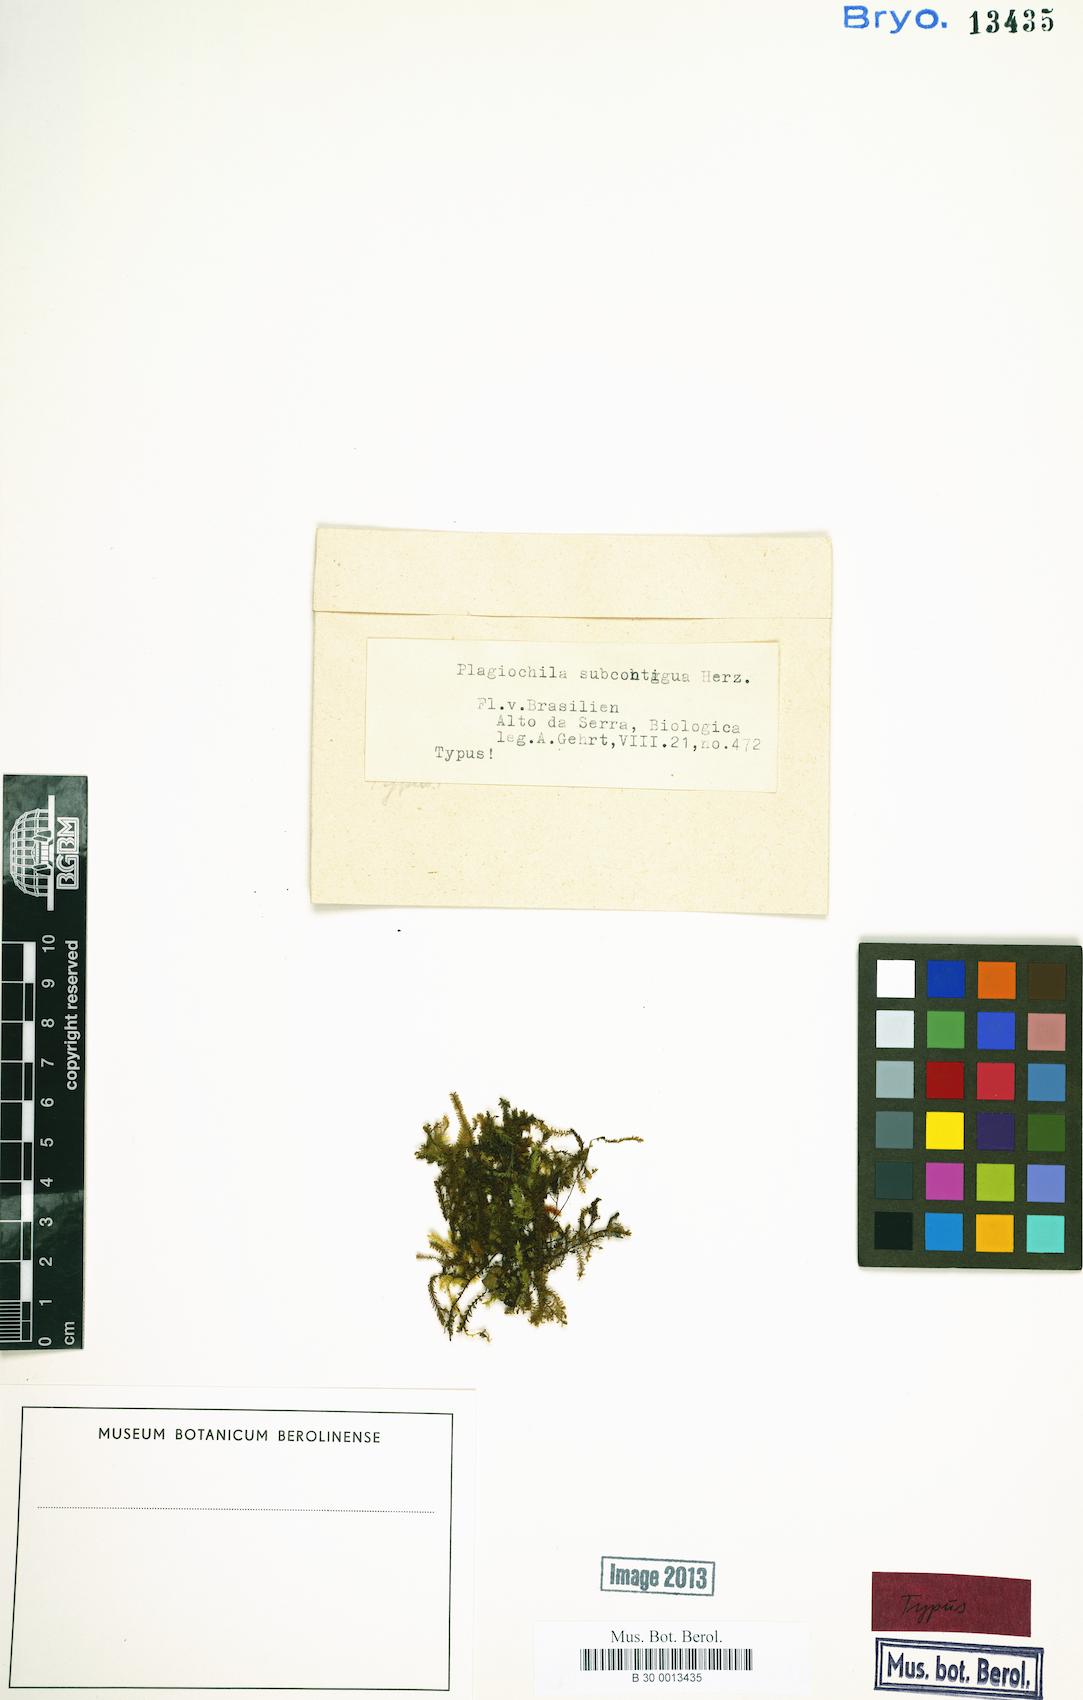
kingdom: Plantae
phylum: Marchantiophyta
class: Jungermanniopsida
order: Jungermanniales
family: Plagiochilaceae
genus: Plagiochila
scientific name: Plagiochila subcontigua
